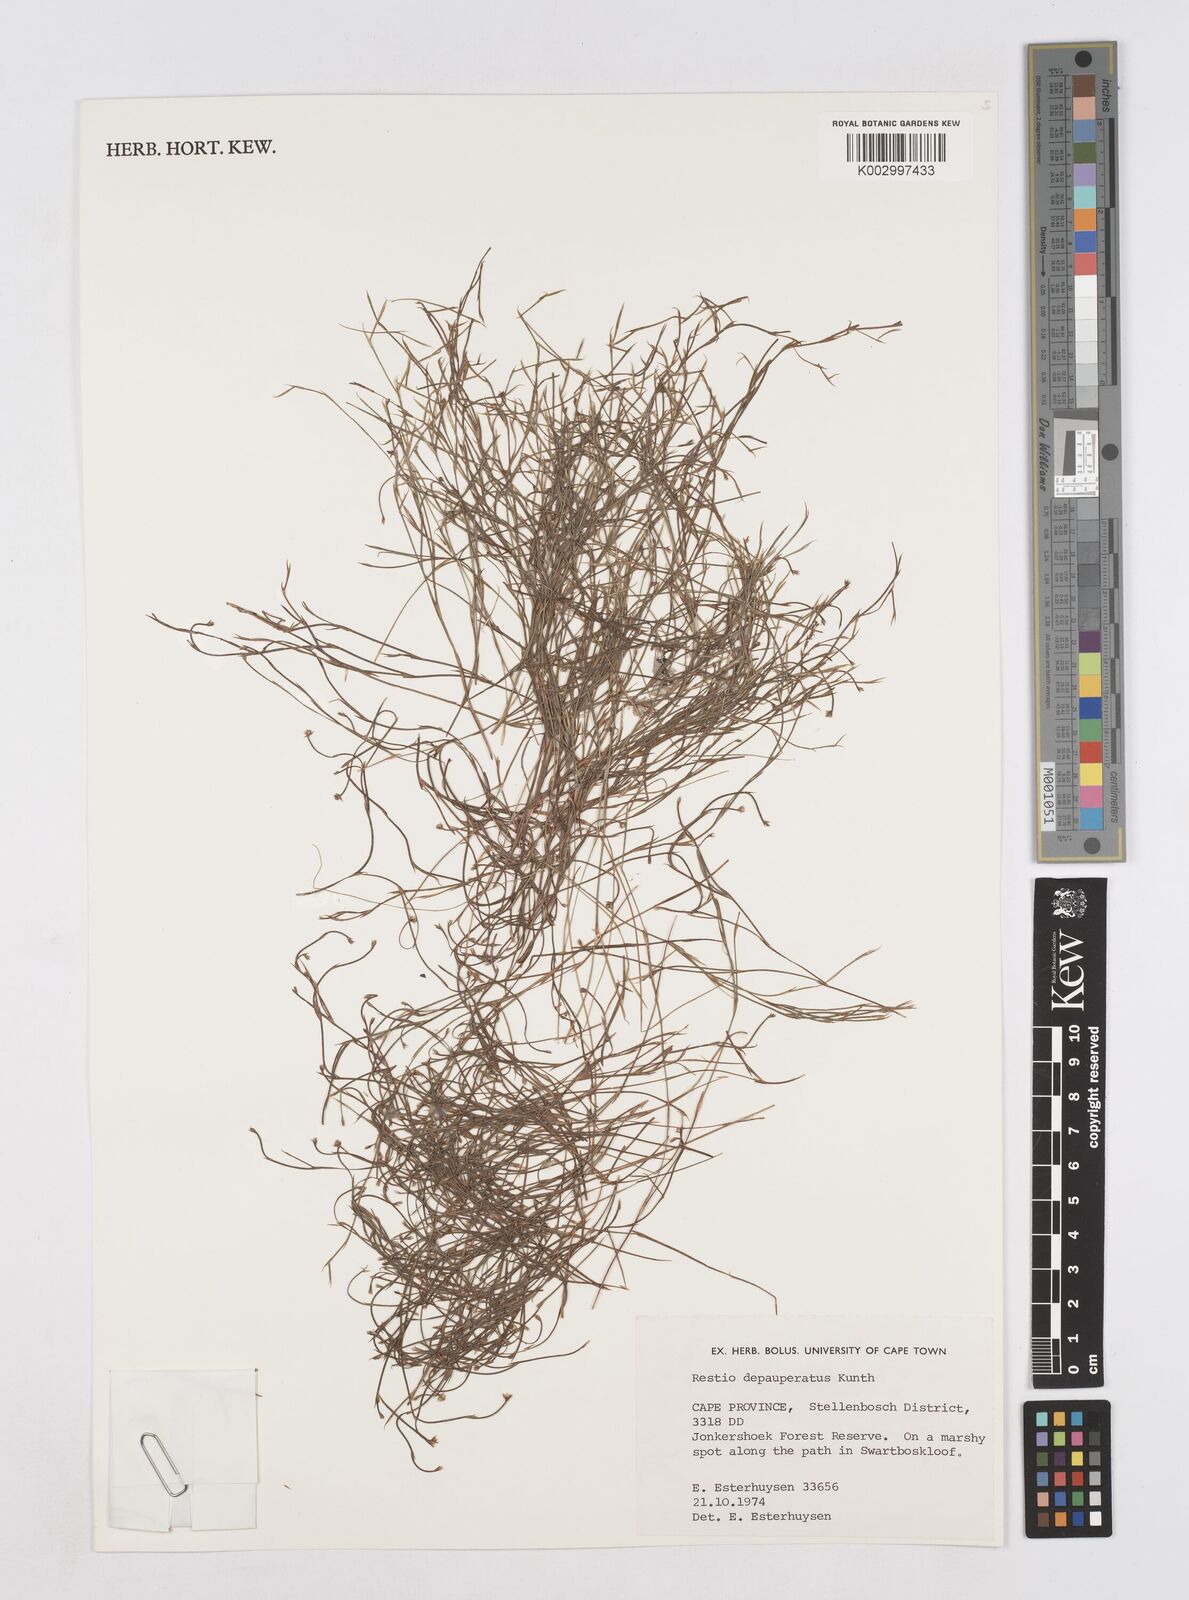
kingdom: Plantae
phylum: Tracheophyta
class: Liliopsida
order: Poales
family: Restionaceae
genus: Platycaulos
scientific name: Platycaulos depauperatus
